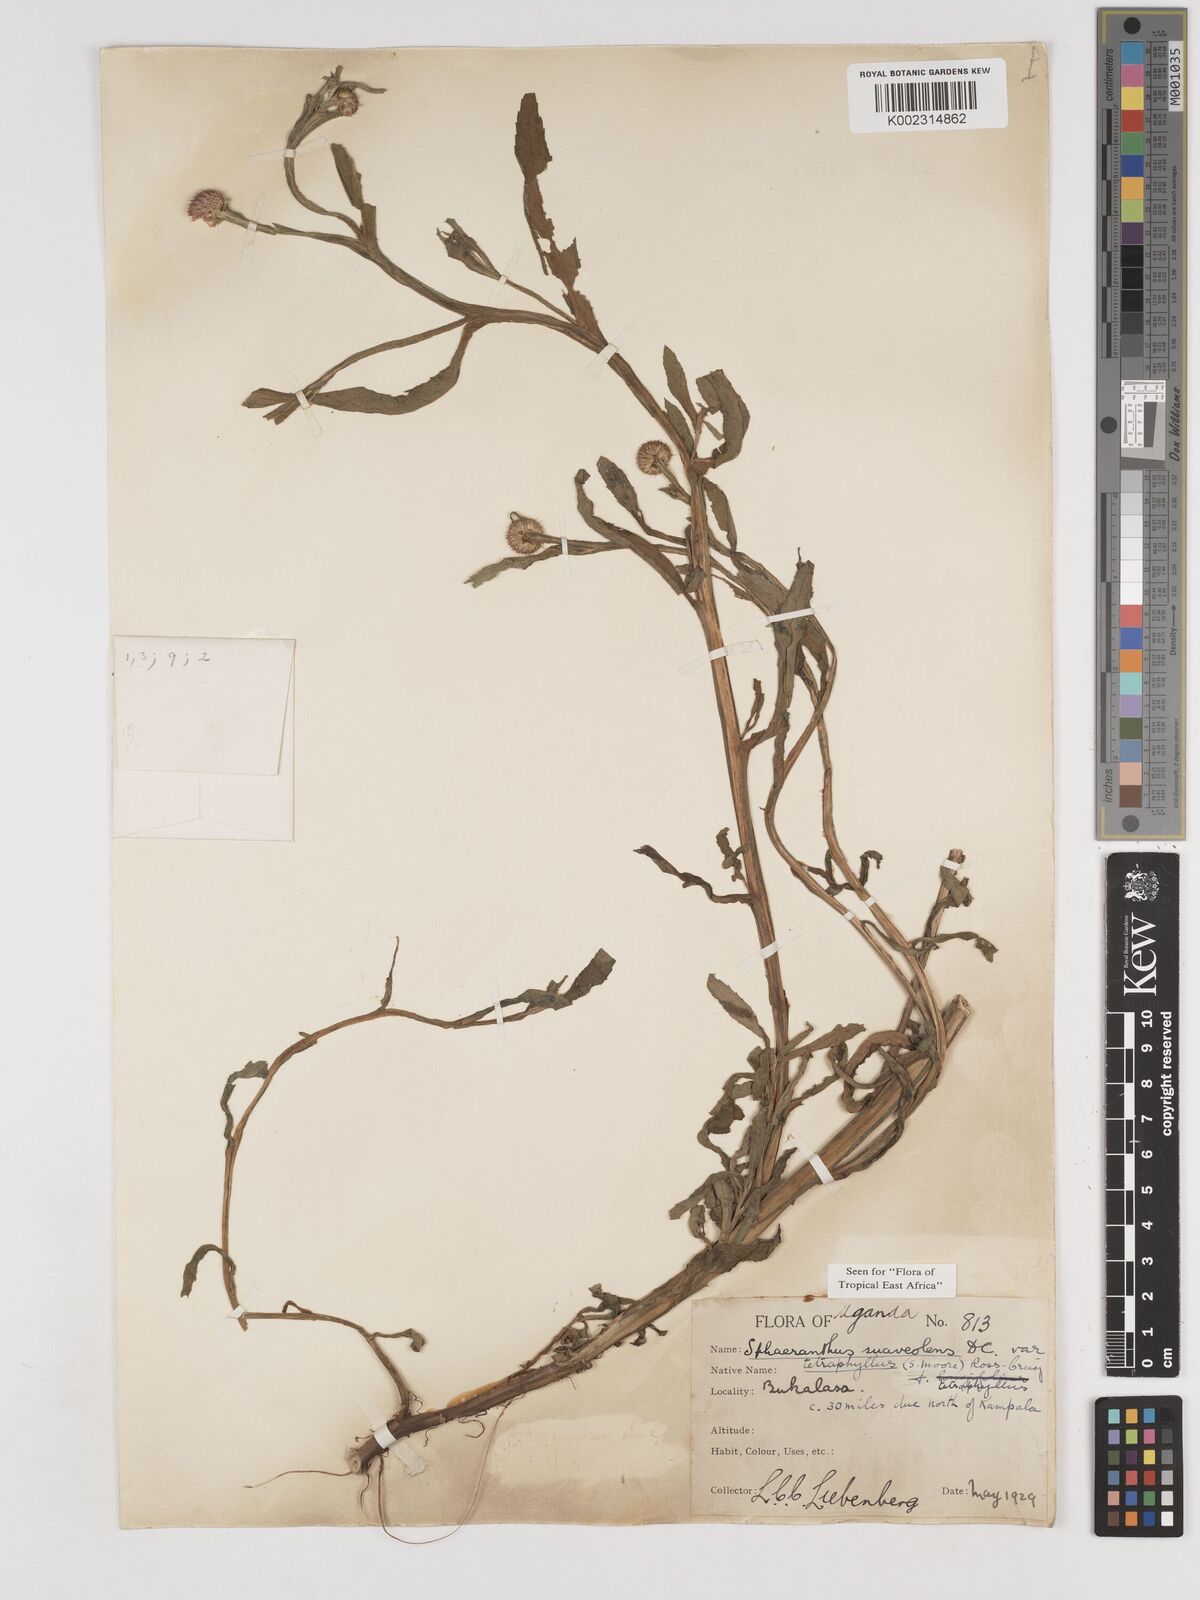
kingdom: Plantae
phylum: Tracheophyta
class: Magnoliopsida
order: Asterales
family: Asteraceae
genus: Sphaeranthus
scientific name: Sphaeranthus suaveolens
